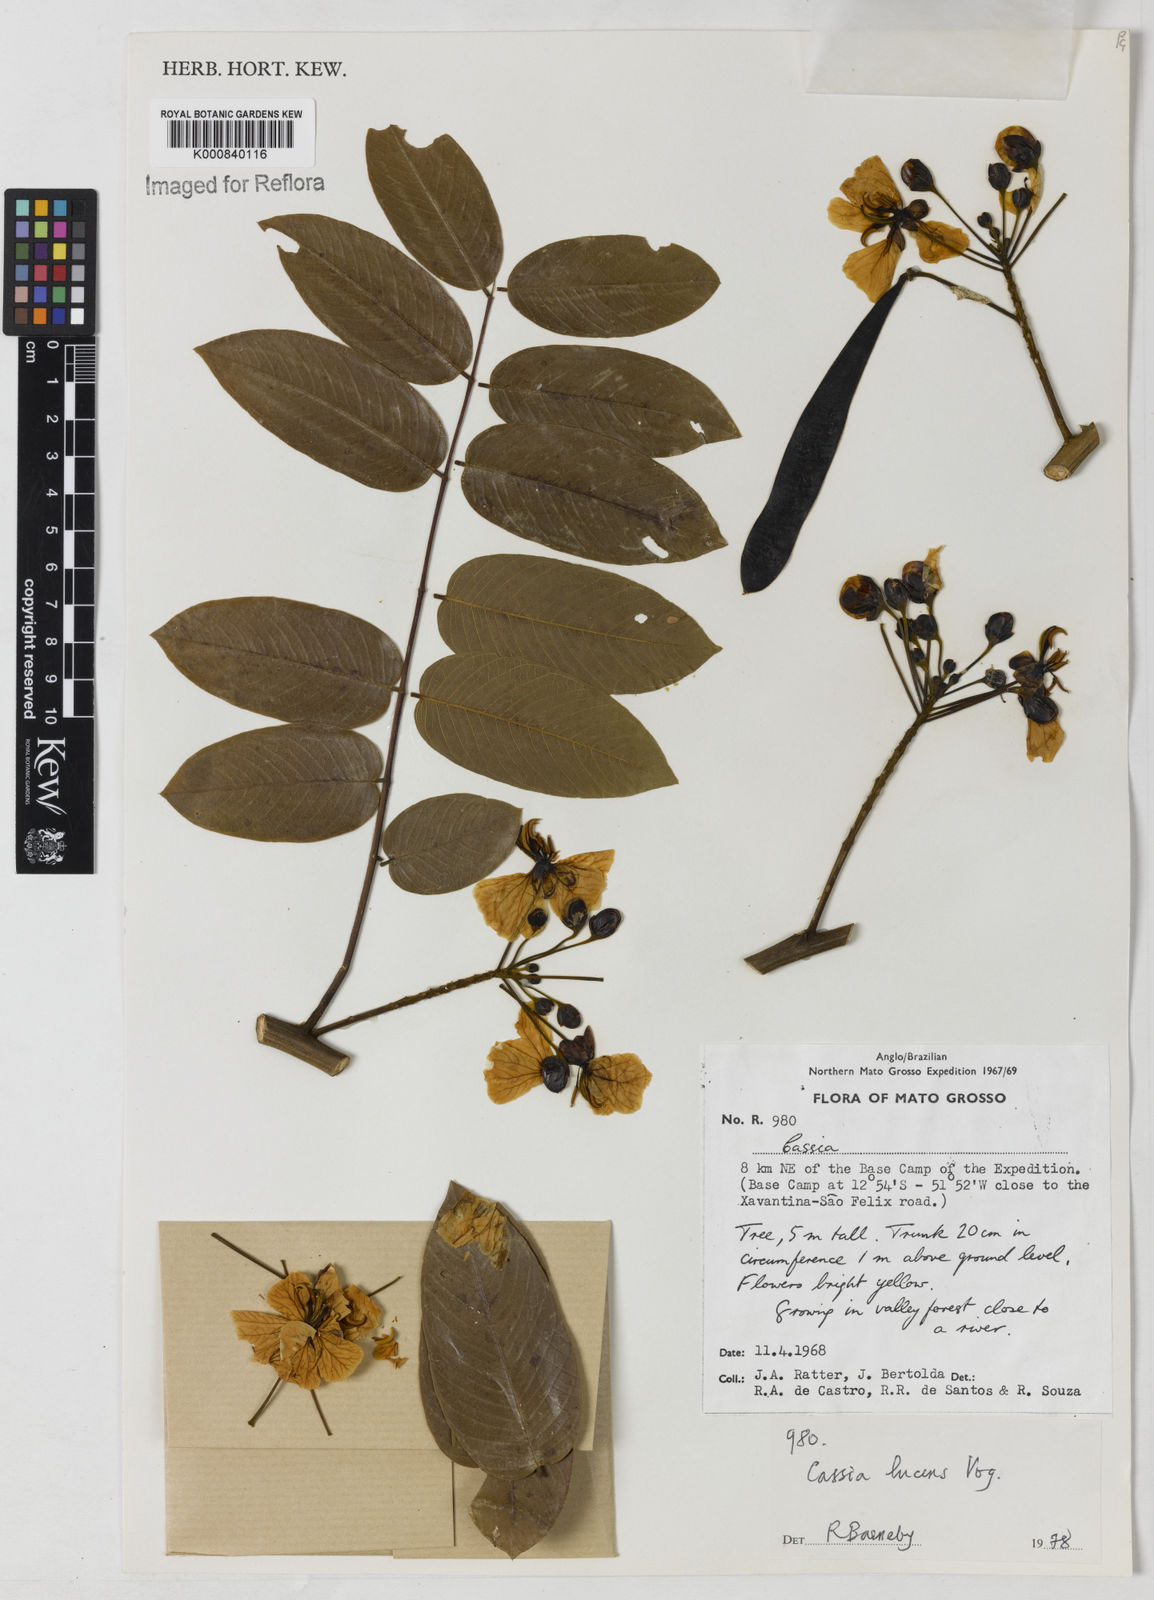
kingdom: Plantae
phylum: Tracheophyta
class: Magnoliopsida
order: Fabales
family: Fabaceae
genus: Senna
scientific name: Senna silvestris
